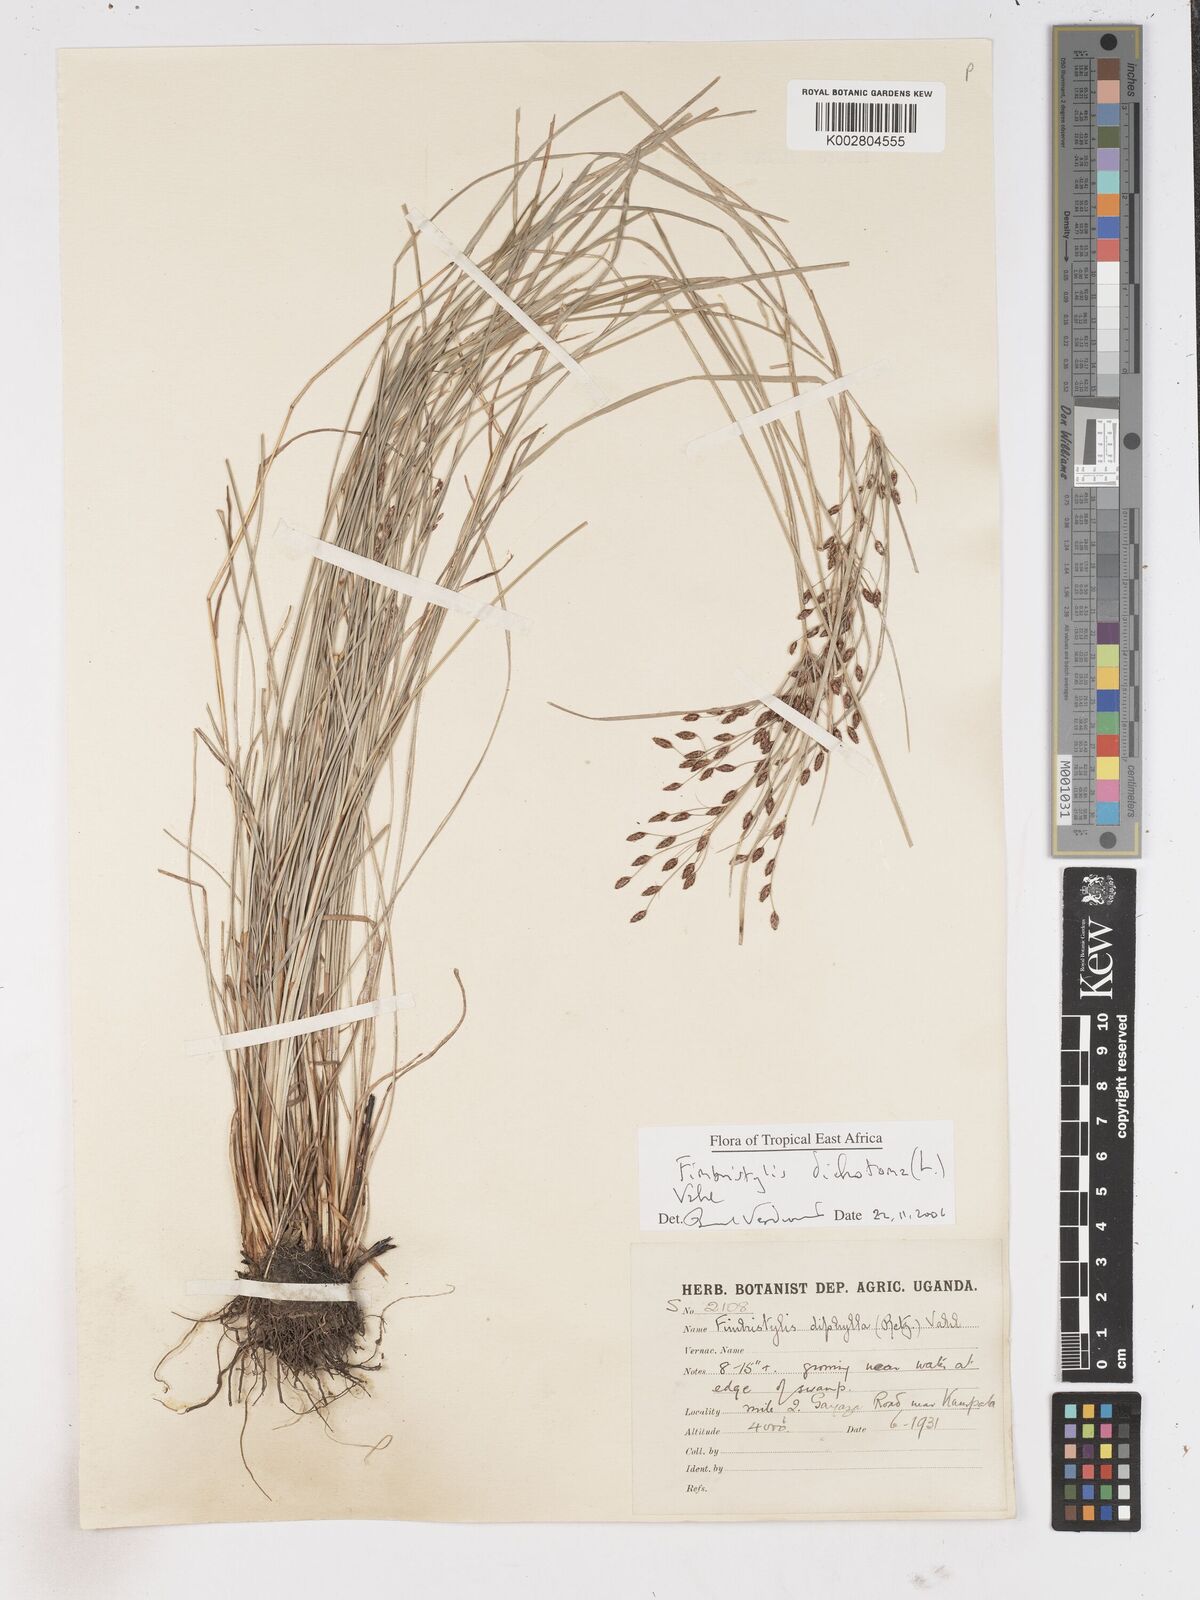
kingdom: Plantae
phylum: Tracheophyta
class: Liliopsida
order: Poales
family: Cyperaceae
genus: Fimbristylis
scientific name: Fimbristylis dichotoma
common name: Forked fimbry
